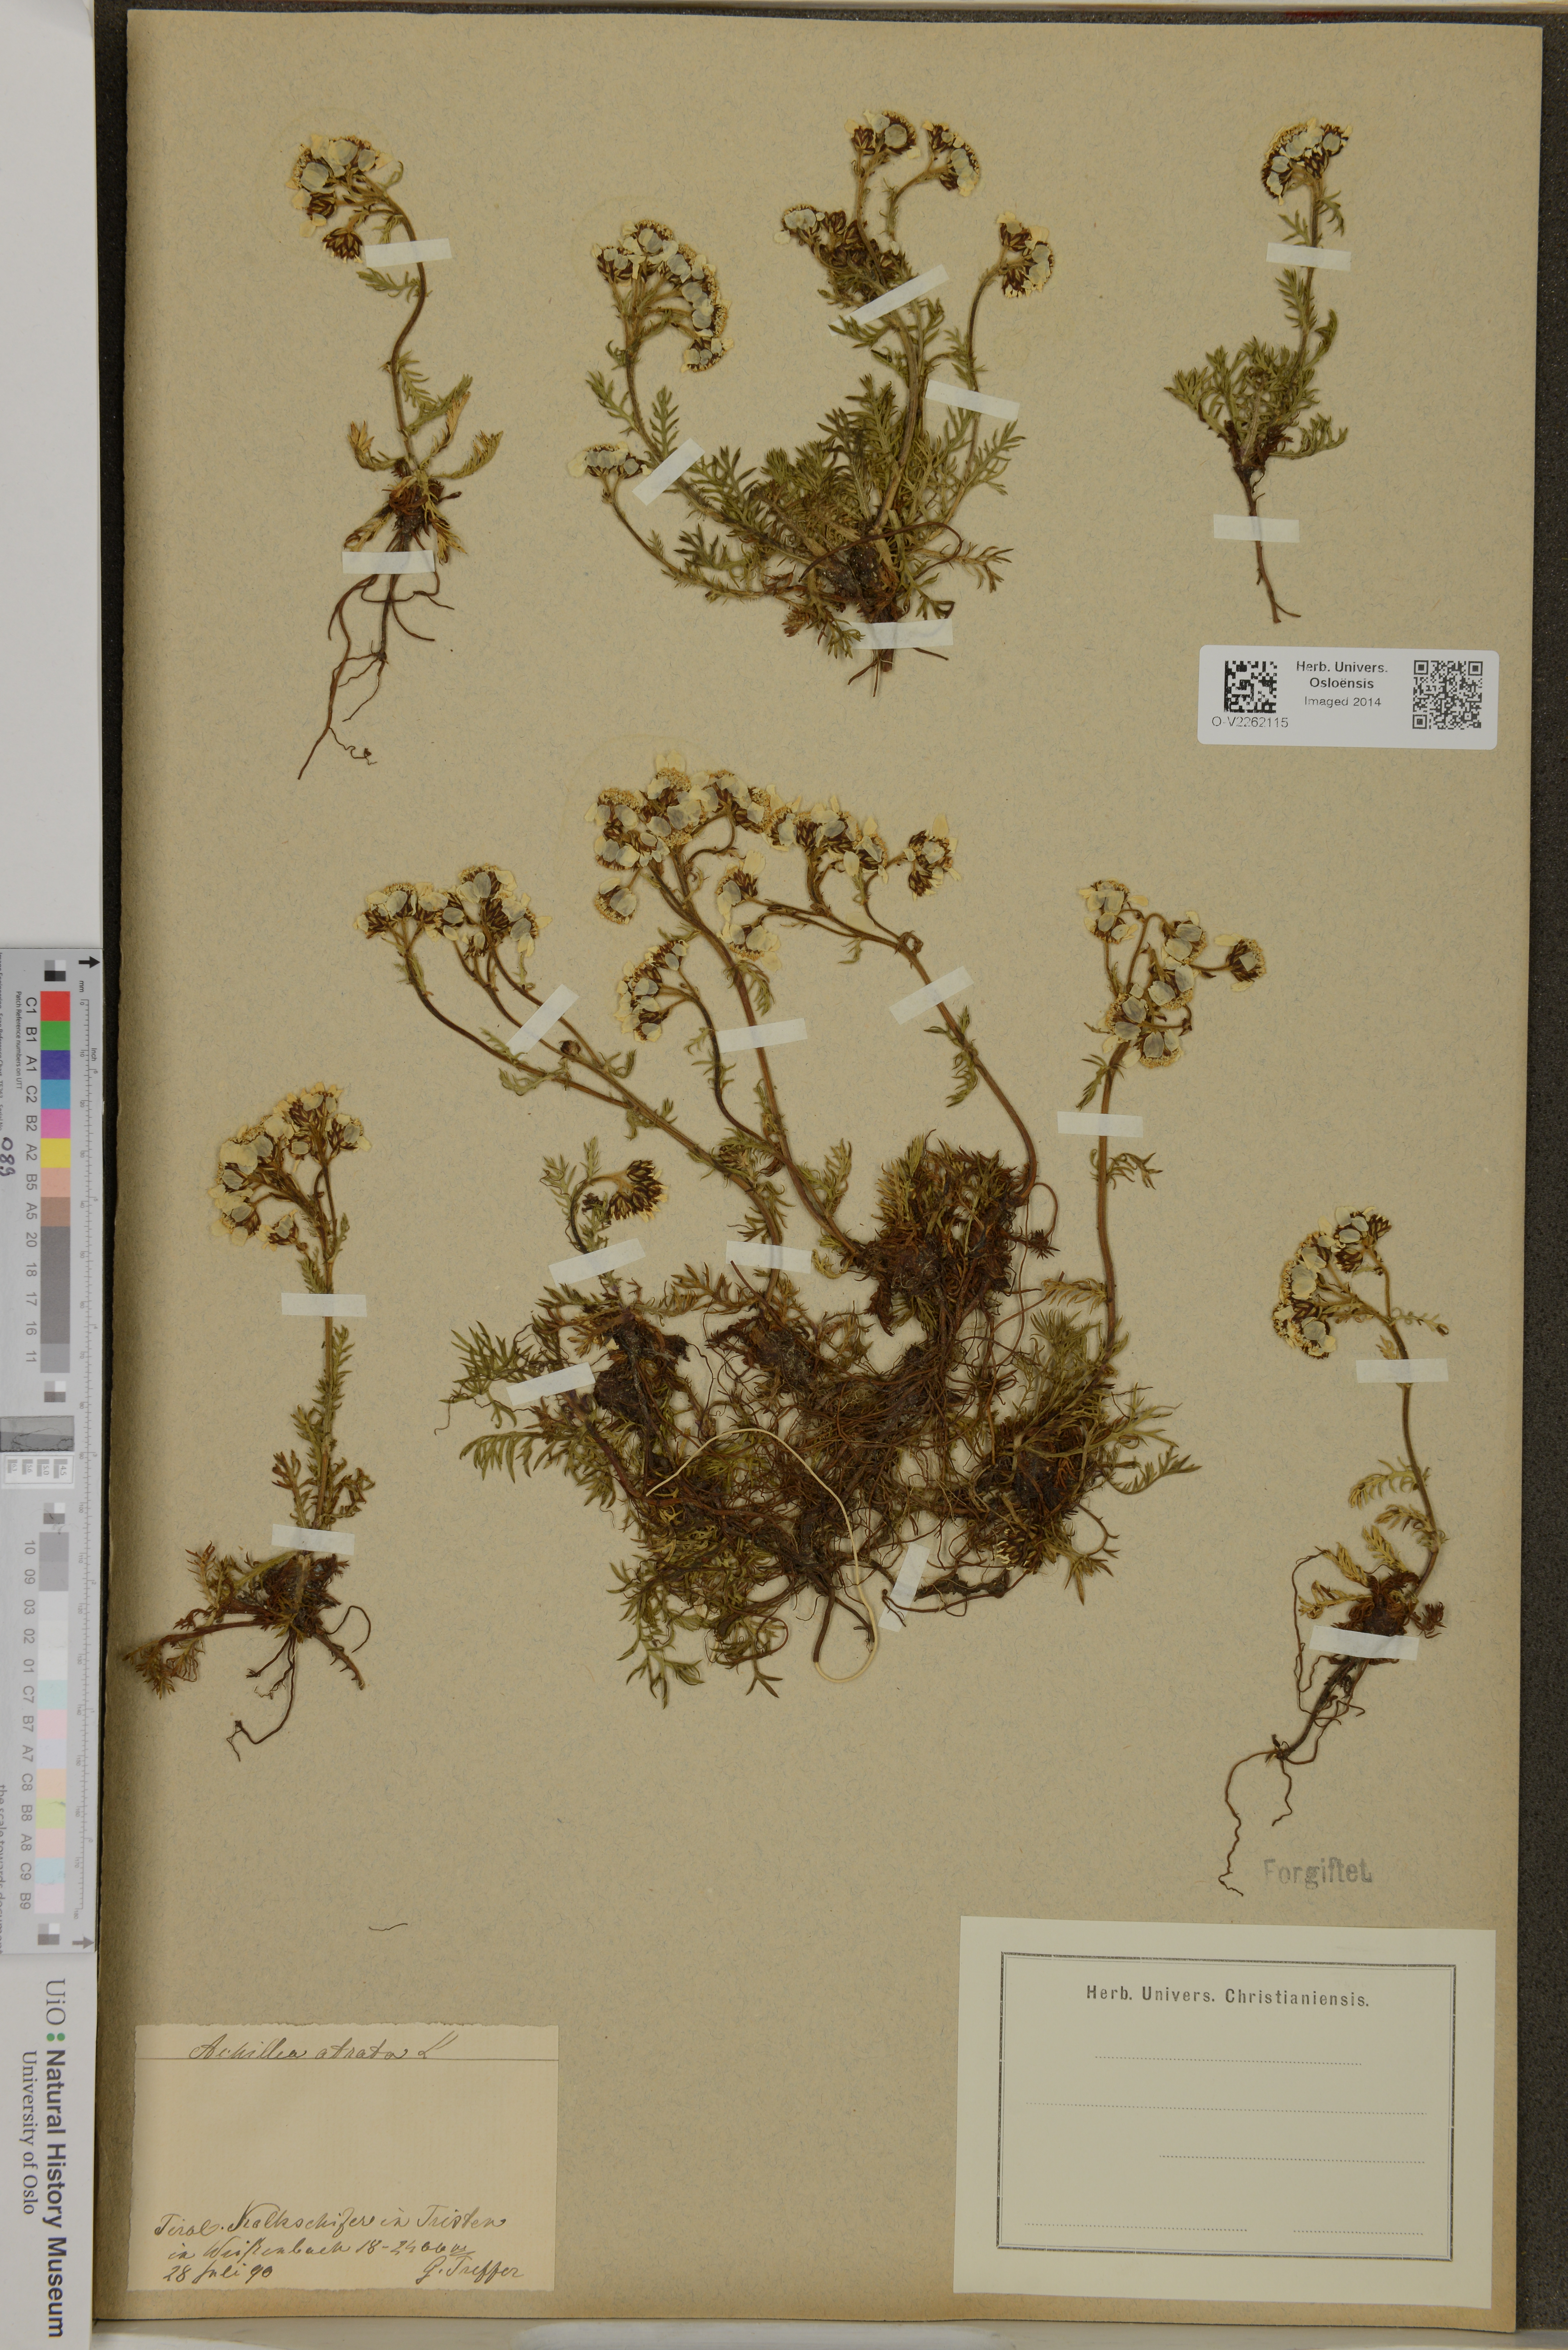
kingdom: Plantae
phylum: Tracheophyta
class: Magnoliopsida
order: Asterales
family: Asteraceae
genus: Achillea
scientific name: Achillea atrata
